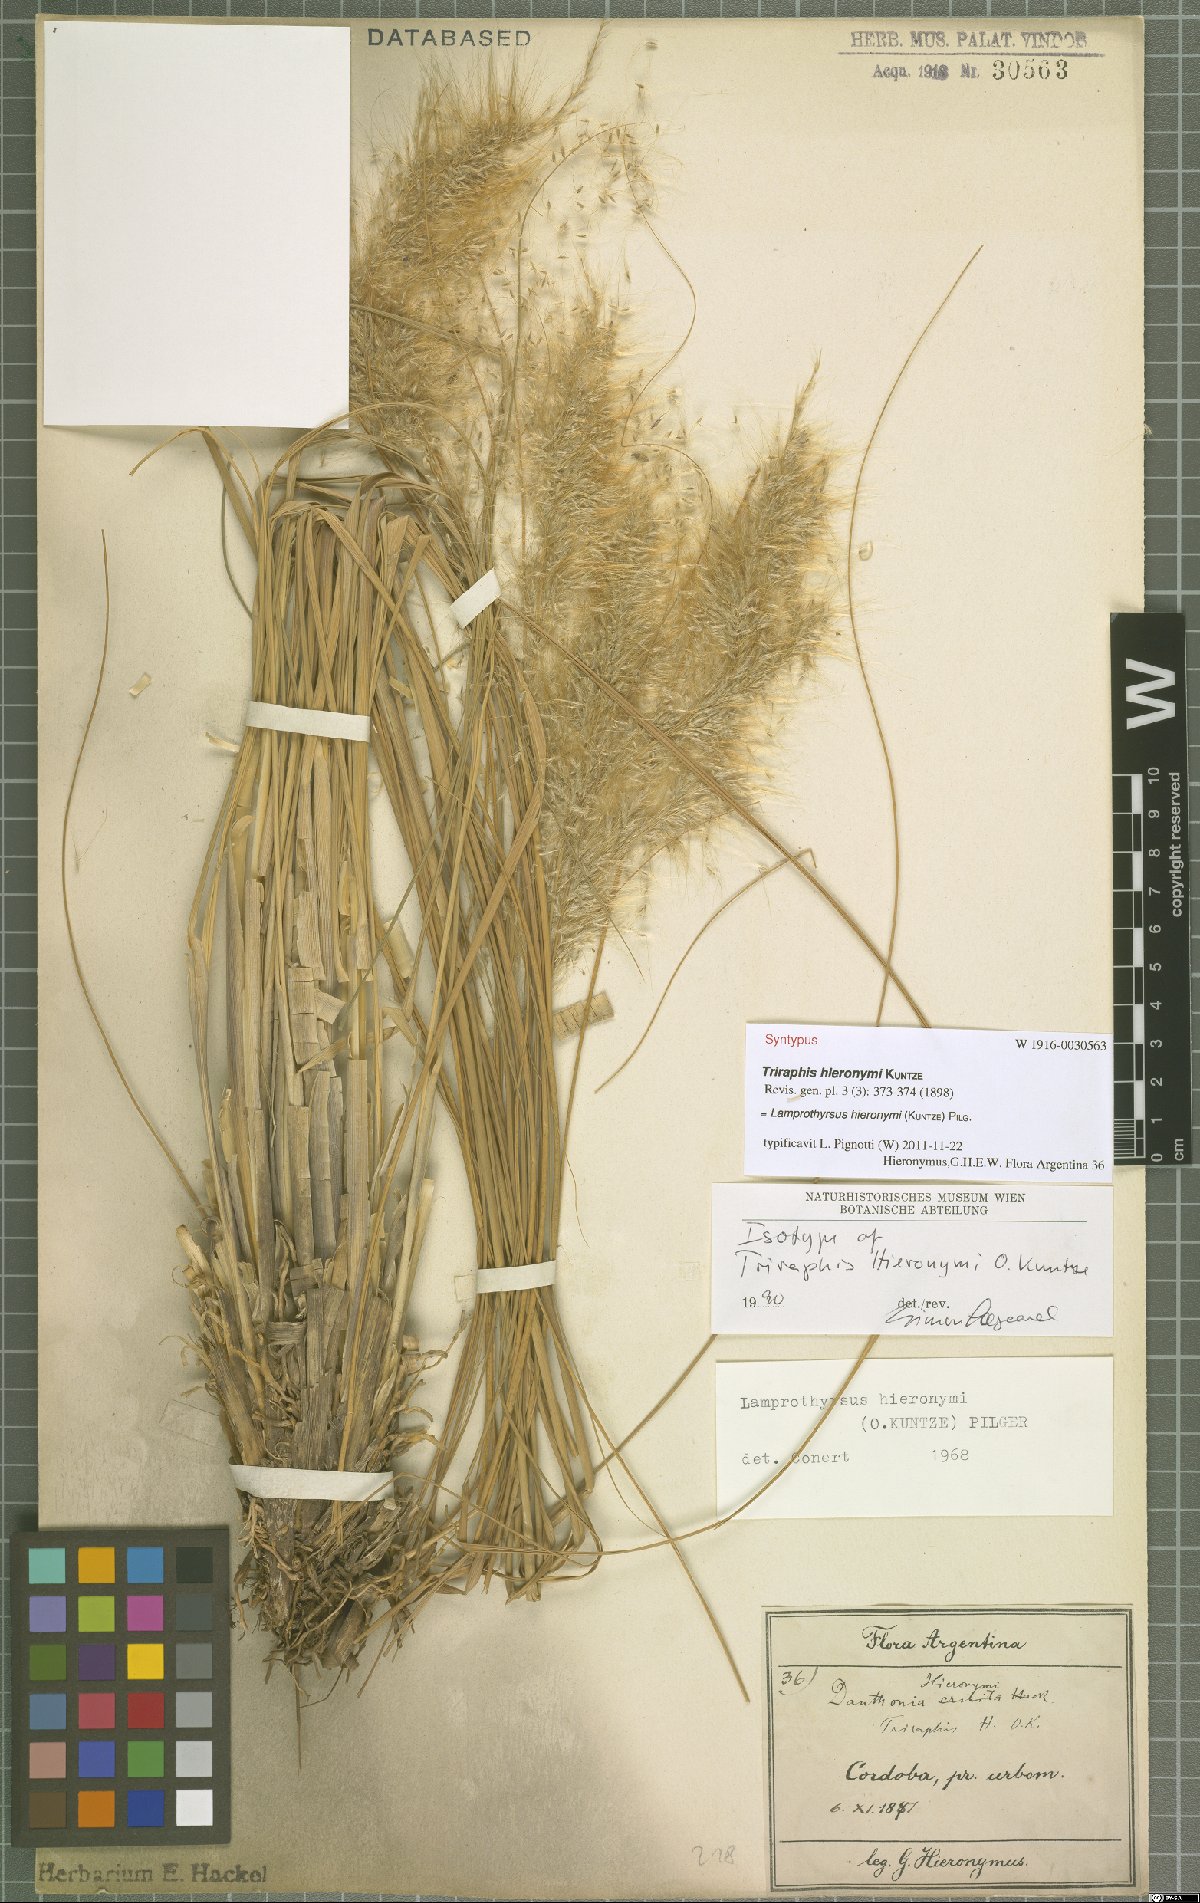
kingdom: Plantae
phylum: Tracheophyta
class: Liliopsida
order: Poales
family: Poaceae
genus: Cortaderia
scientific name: Cortaderia hieronymi
